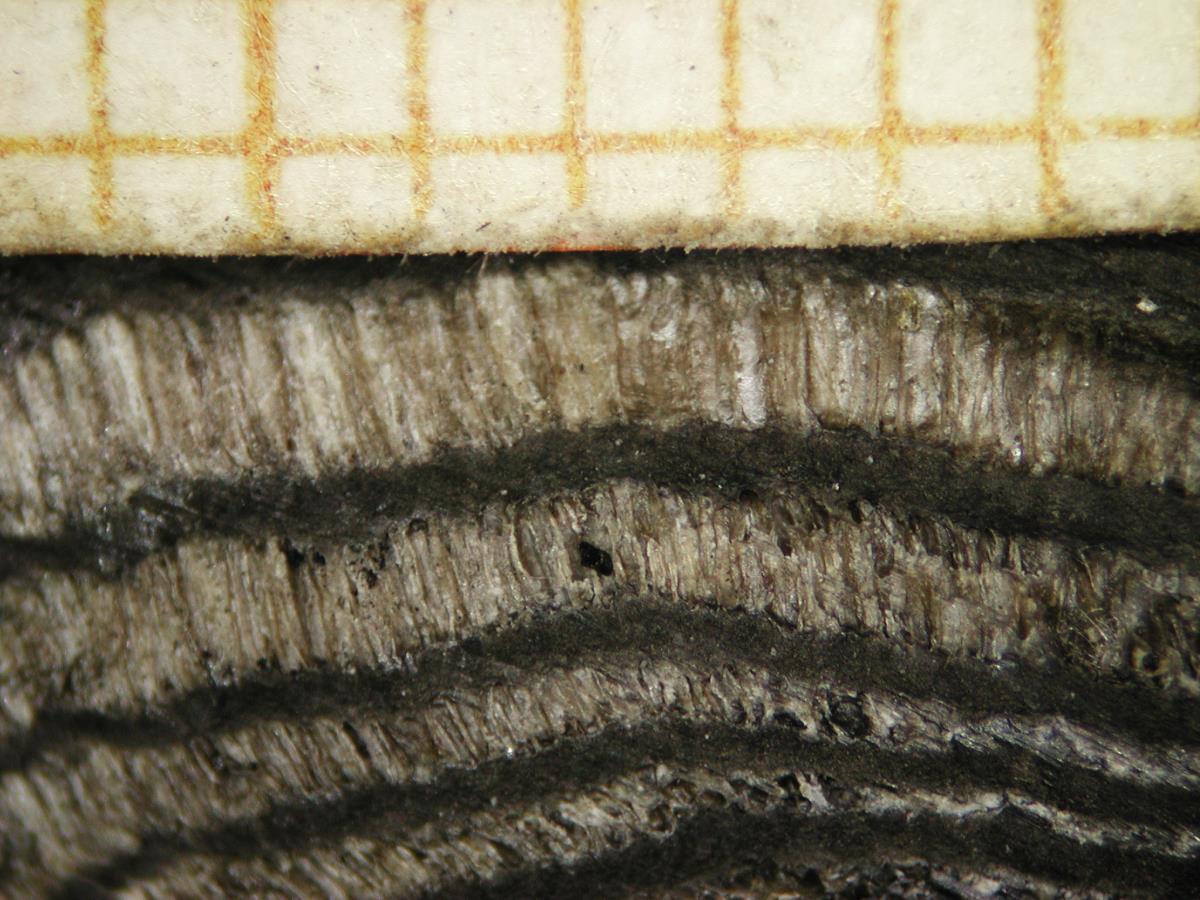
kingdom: Fungi
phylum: Ascomycota
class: Sordariomycetes
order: Xylariales
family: Hypoxylaceae
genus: Daldinia
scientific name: Daldinia novae-zelandiae
